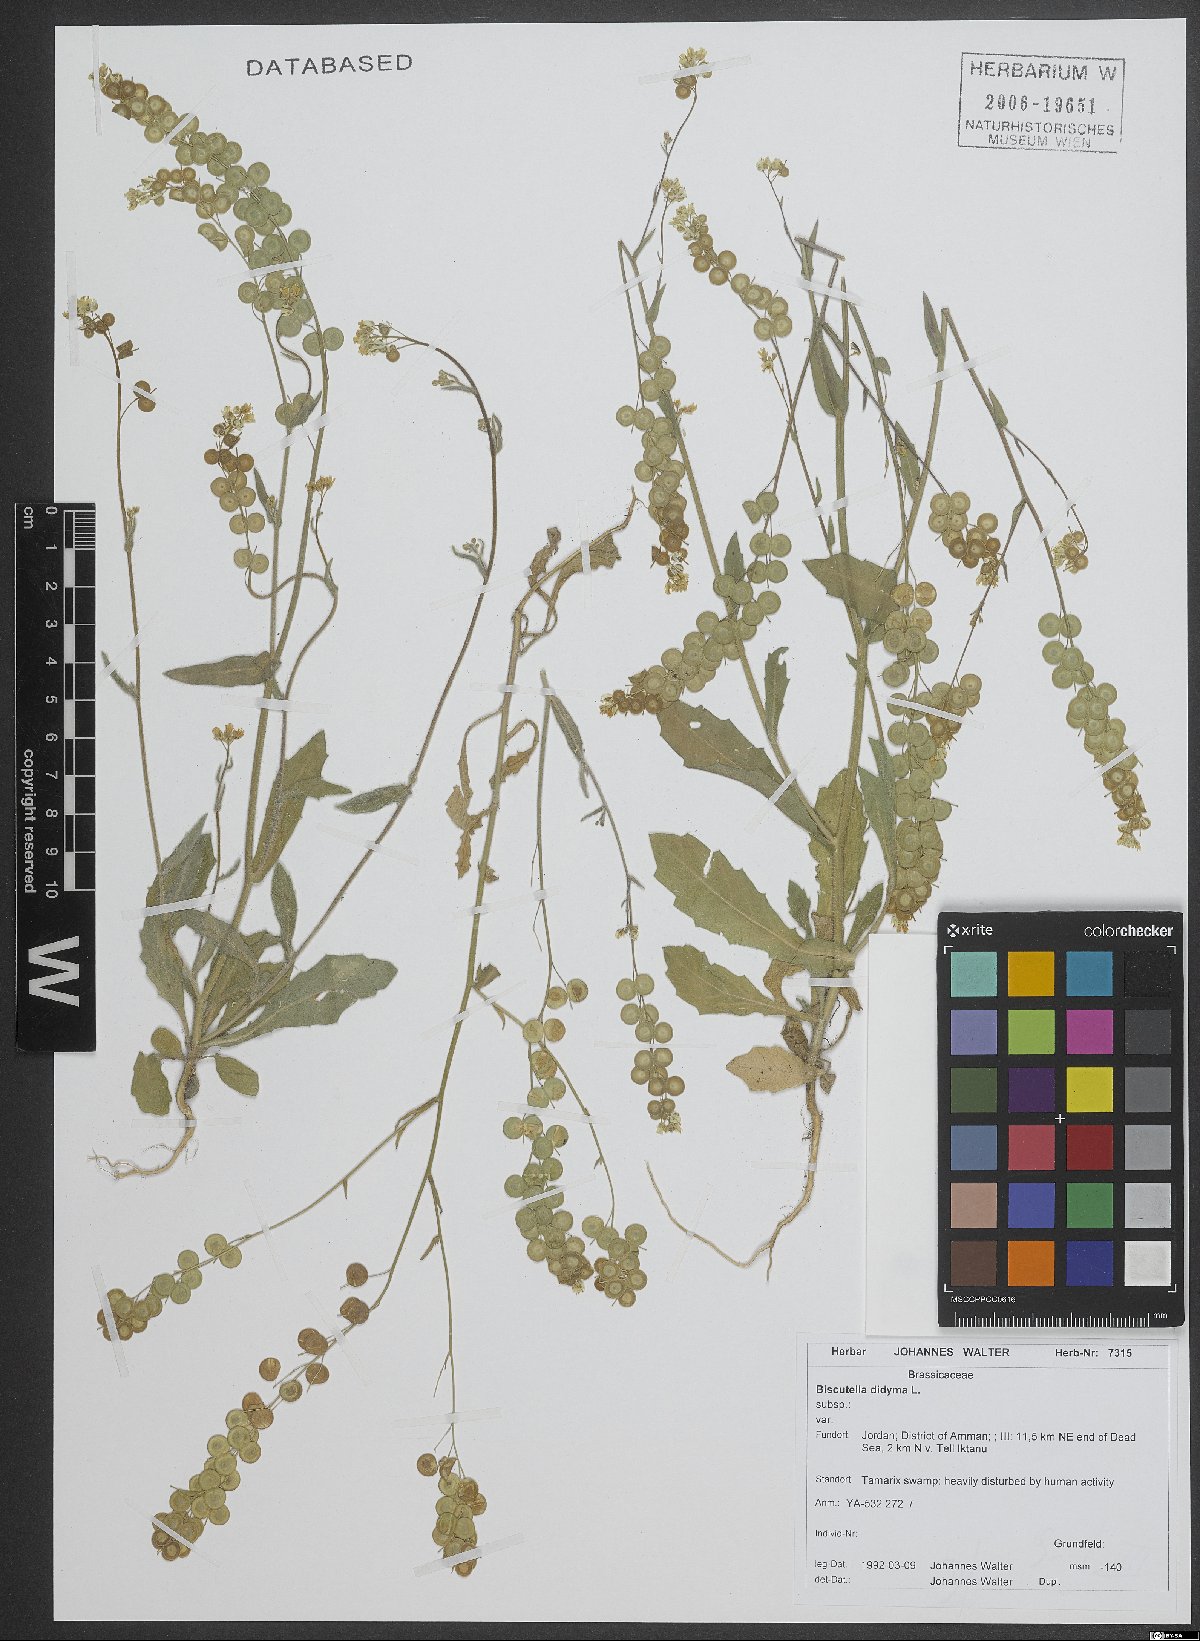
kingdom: Plantae
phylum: Tracheophyta
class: Magnoliopsida
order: Brassicales
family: Brassicaceae
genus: Biscutella
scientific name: Biscutella didyma
